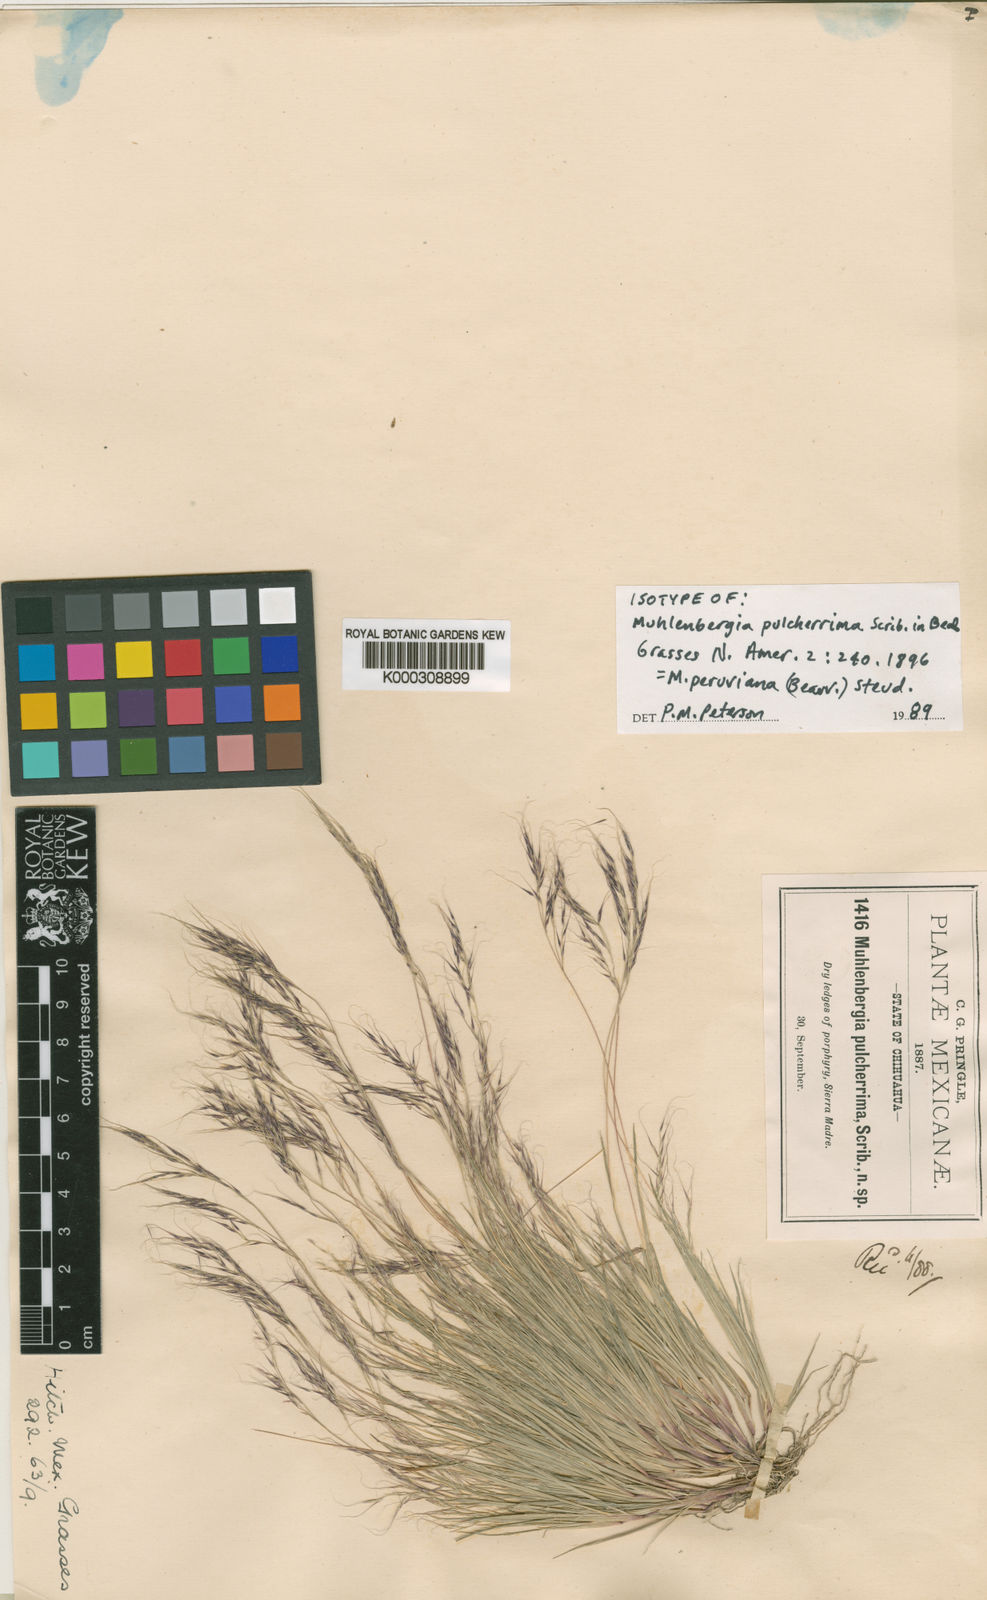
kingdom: Plantae
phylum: Tracheophyta
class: Liliopsida
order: Poales
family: Poaceae
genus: Muhlenbergia
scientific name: Muhlenbergia peruviana
